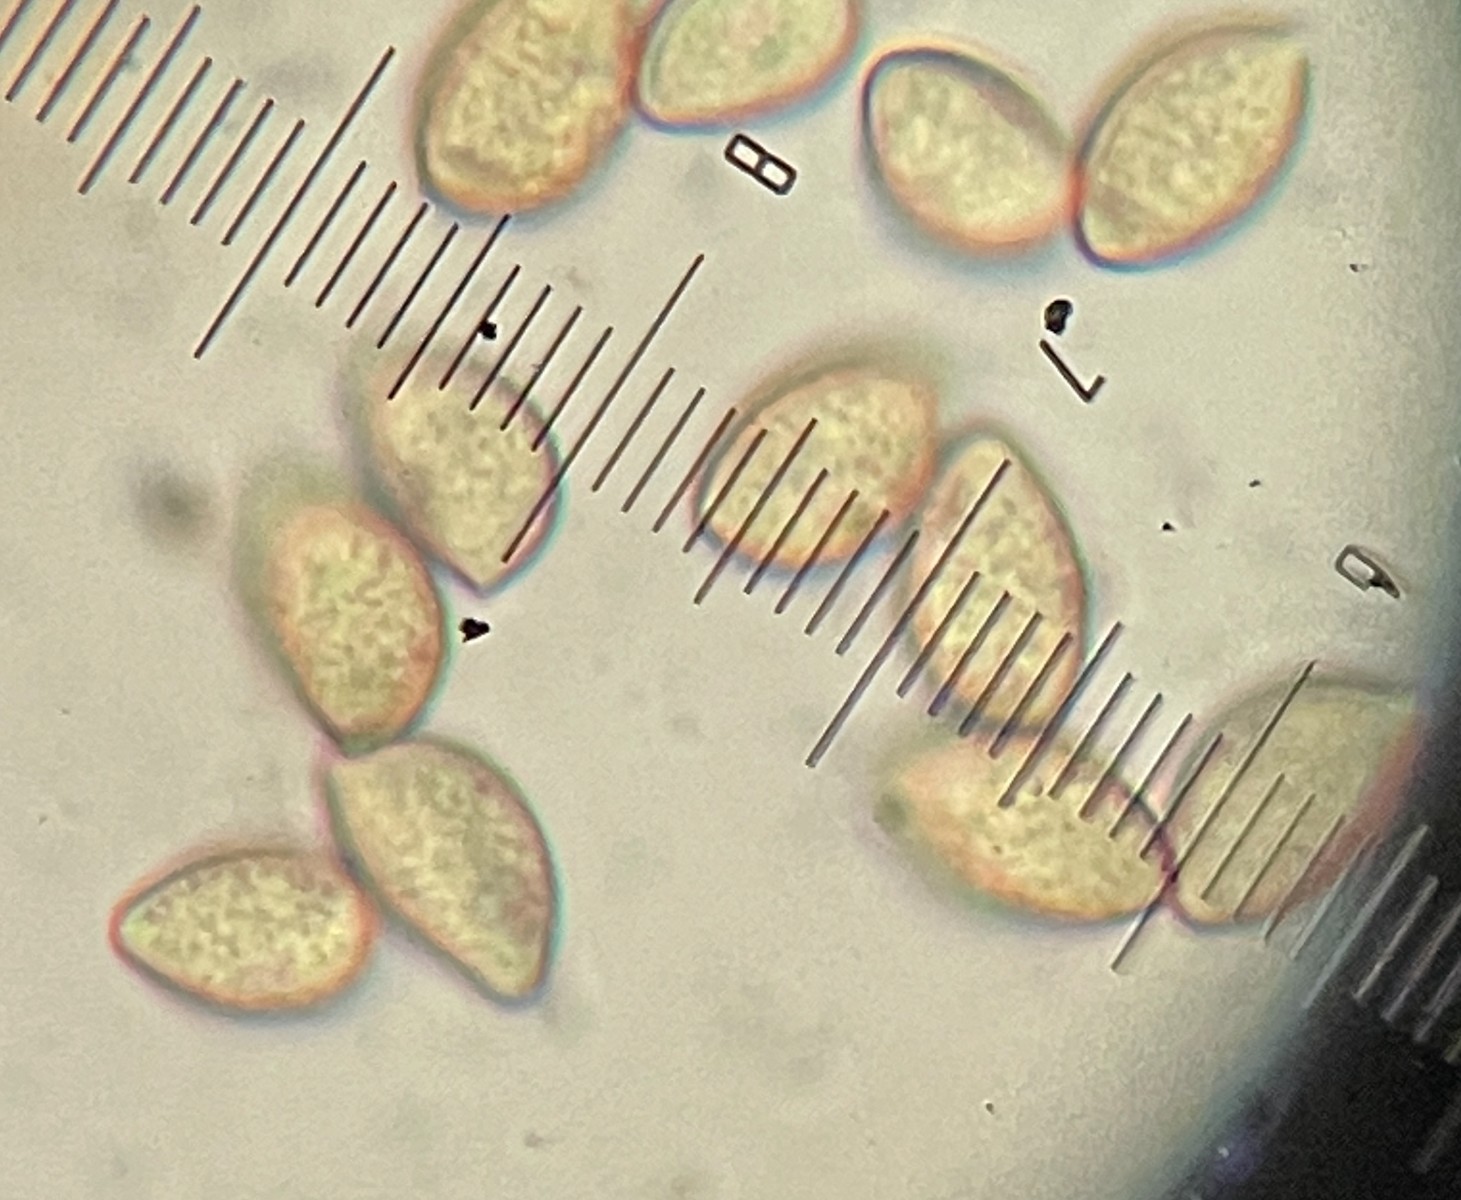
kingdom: Fungi
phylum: Basidiomycota
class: Agaricomycetes
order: Agaricales
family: Hymenogastraceae
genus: Hebeloma
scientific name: Hebeloma
